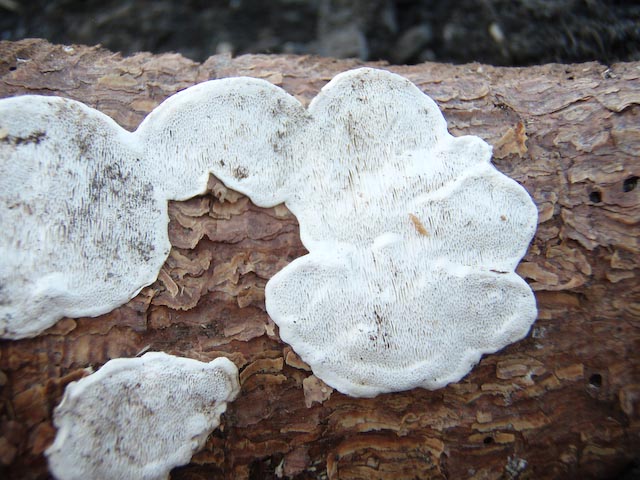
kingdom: Fungi
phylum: Basidiomycota
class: Agaricomycetes
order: Russulales
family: Bondarzewiaceae
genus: Heterobasidion
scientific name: Heterobasidion annosum
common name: almindelig rodfordærver
